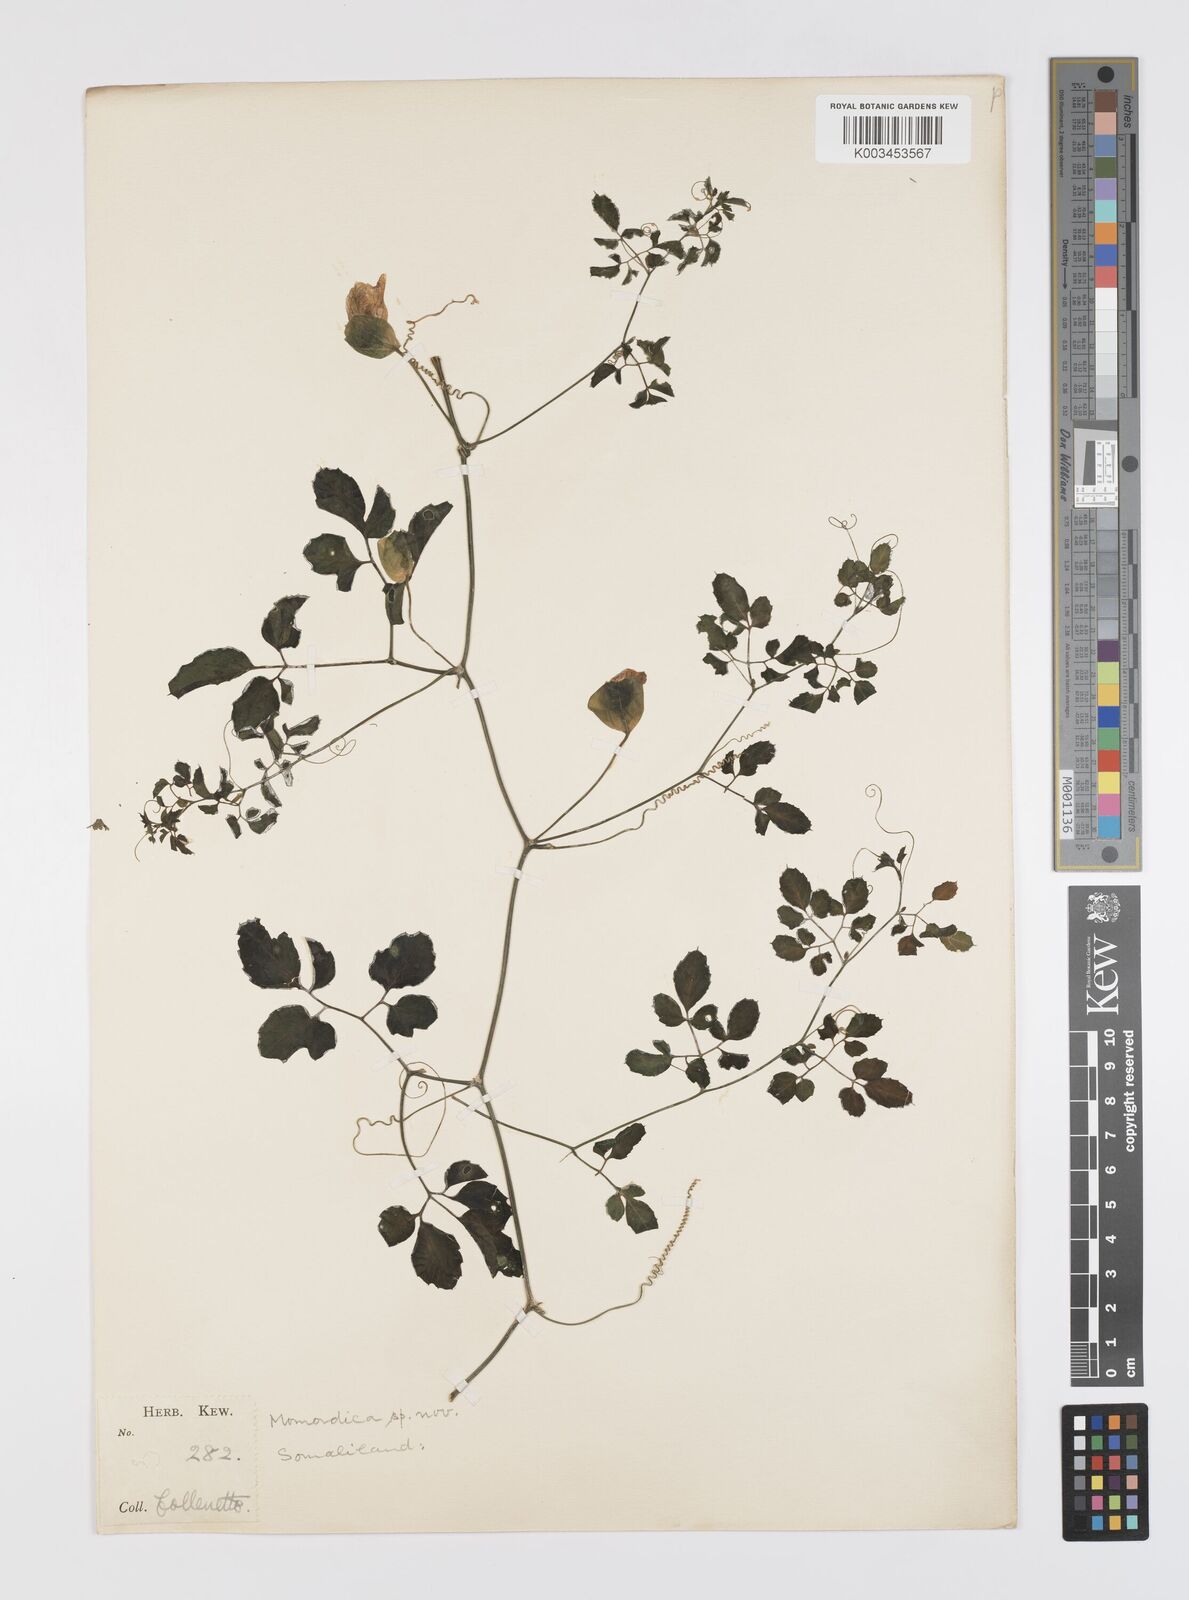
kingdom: Plantae
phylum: Tracheophyta
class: Magnoliopsida
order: Cucurbitales
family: Cucurbitaceae
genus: Momordica
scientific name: Momordica trifoliolata
